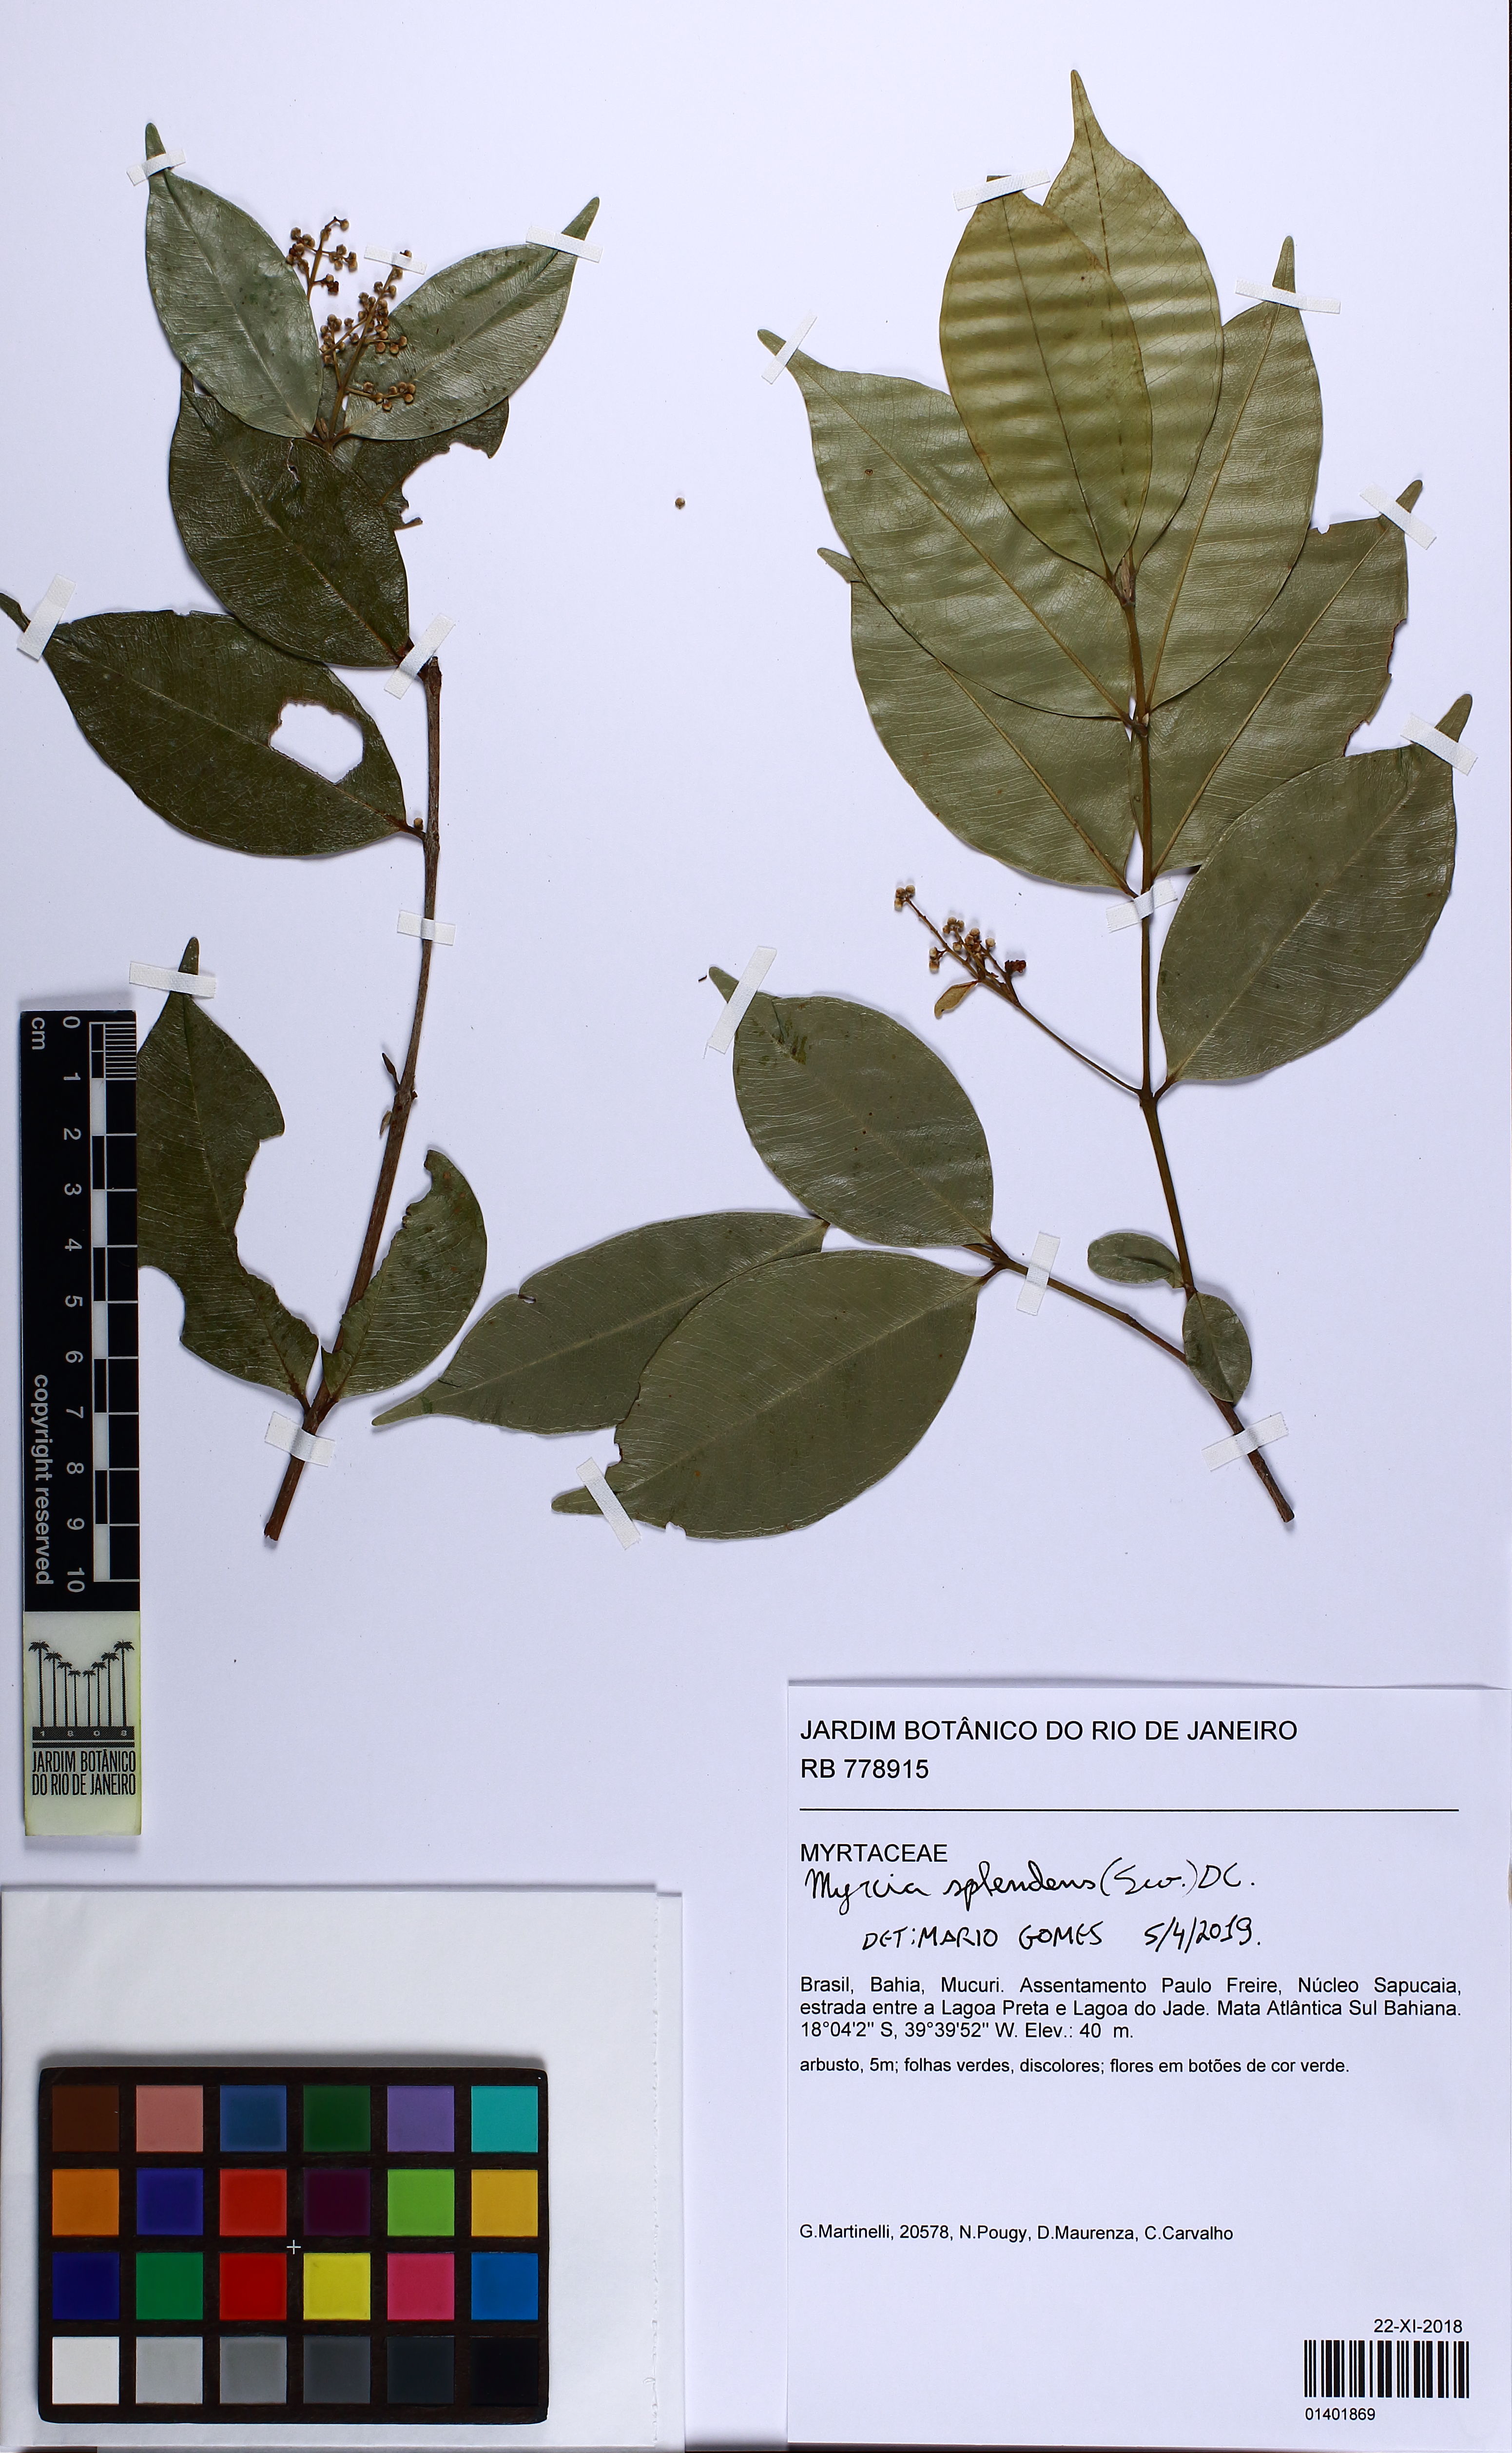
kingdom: Plantae
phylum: Tracheophyta
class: Magnoliopsida
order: Myrtales
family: Myrtaceae
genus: Myrcia
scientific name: Myrcia splendens
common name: Surinam cherry
